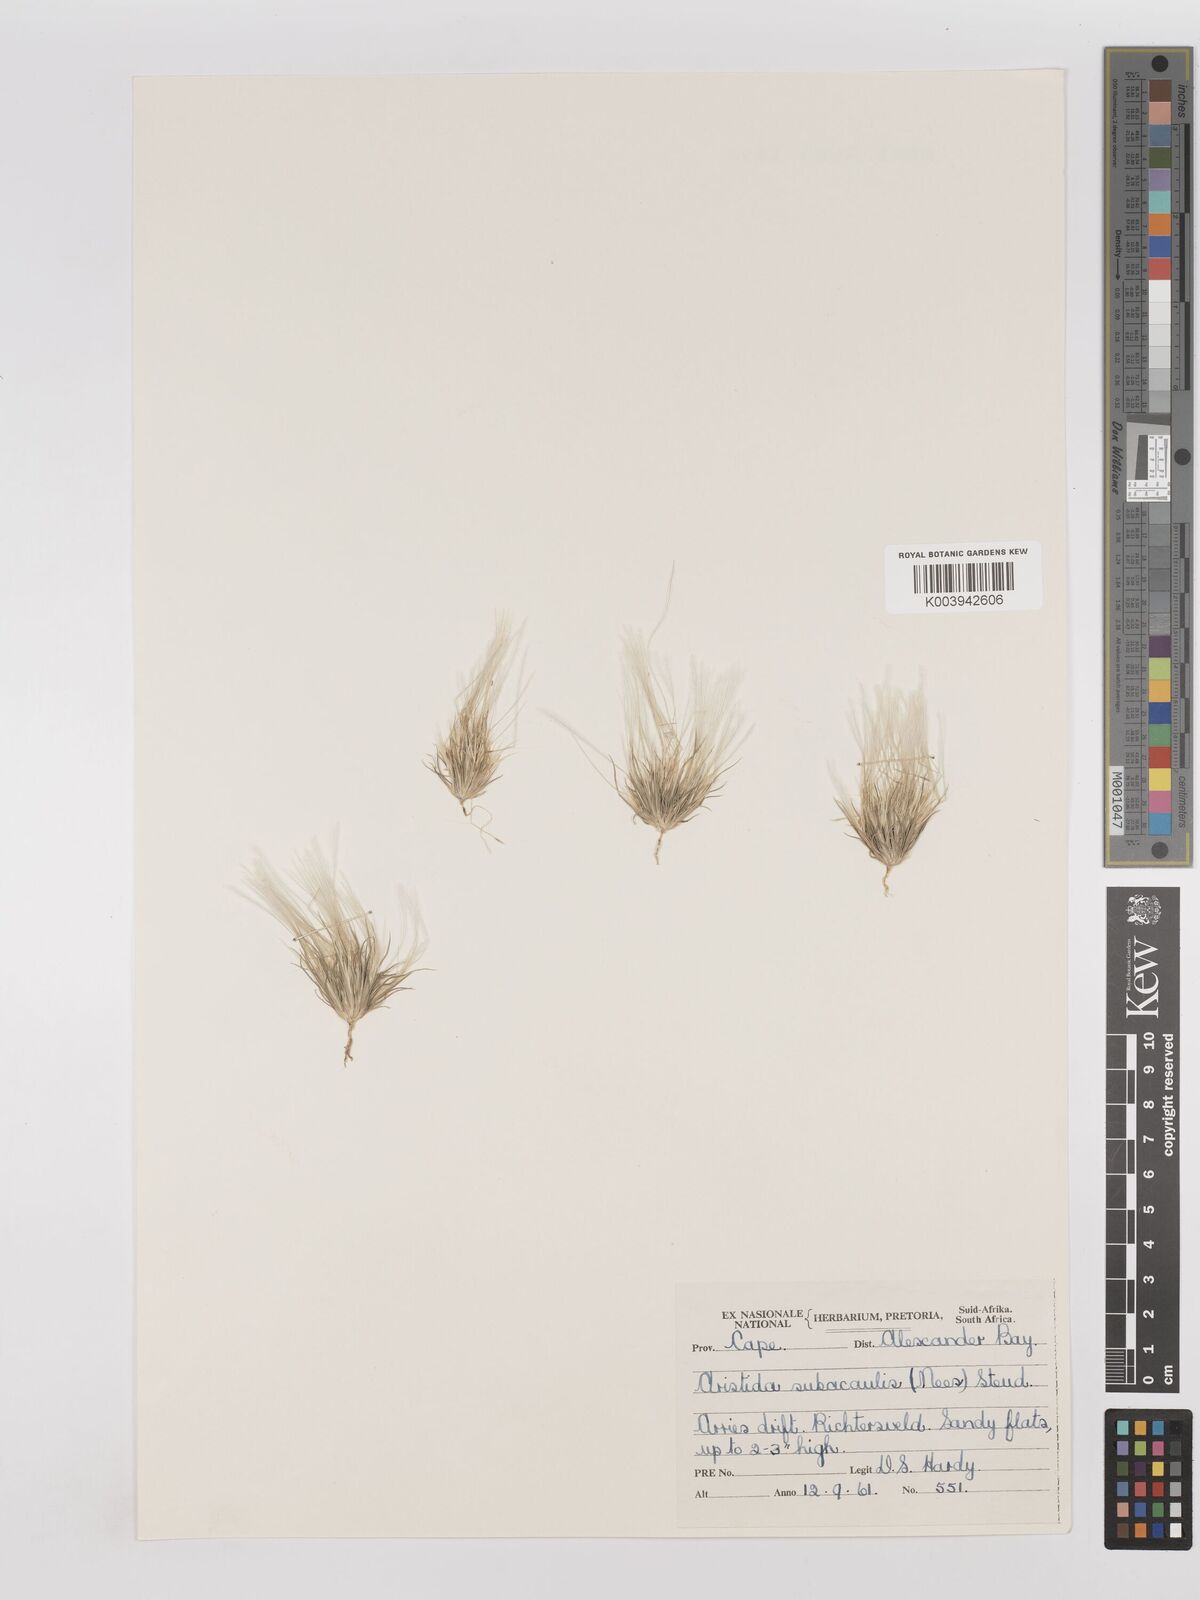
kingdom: Plantae
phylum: Tracheophyta
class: Liliopsida
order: Poales
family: Poaceae
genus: Stipagrostis
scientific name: Stipagrostis subacaulis
